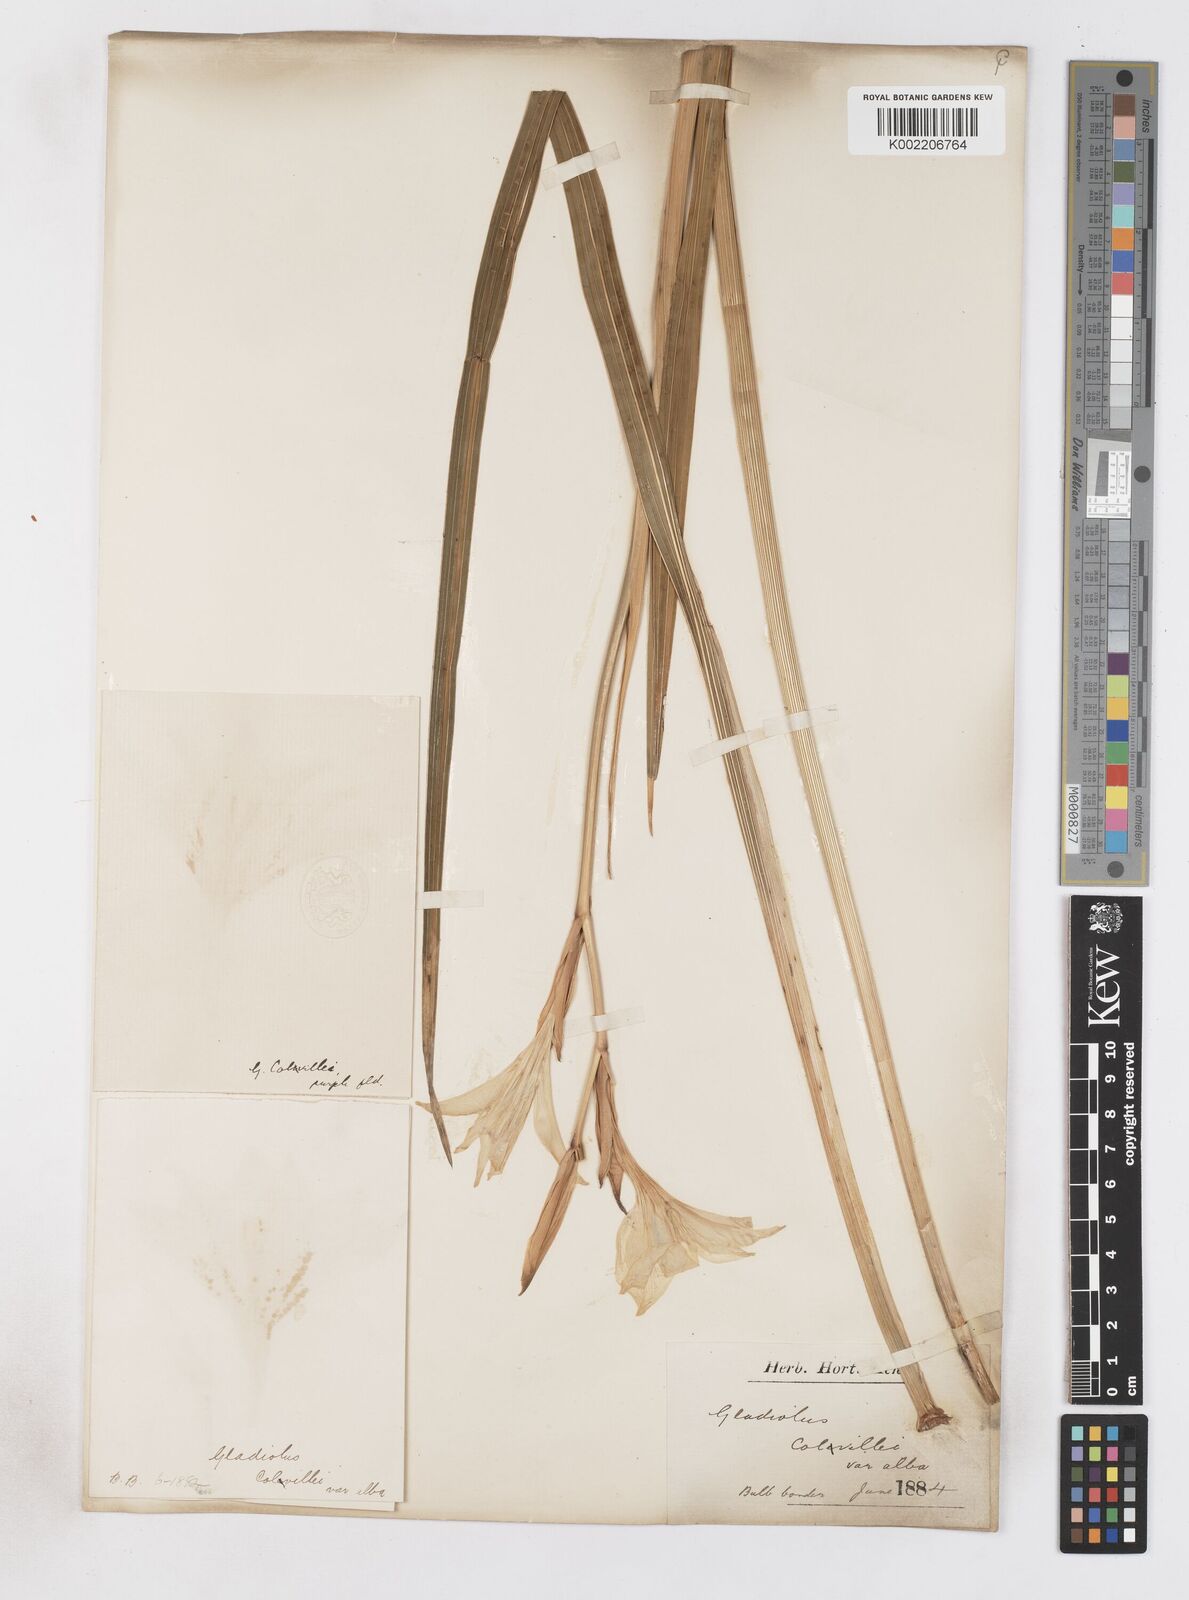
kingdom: Plantae
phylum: Tracheophyta
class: Liliopsida
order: Asparagales
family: Iridaceae
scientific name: Iridaceae
